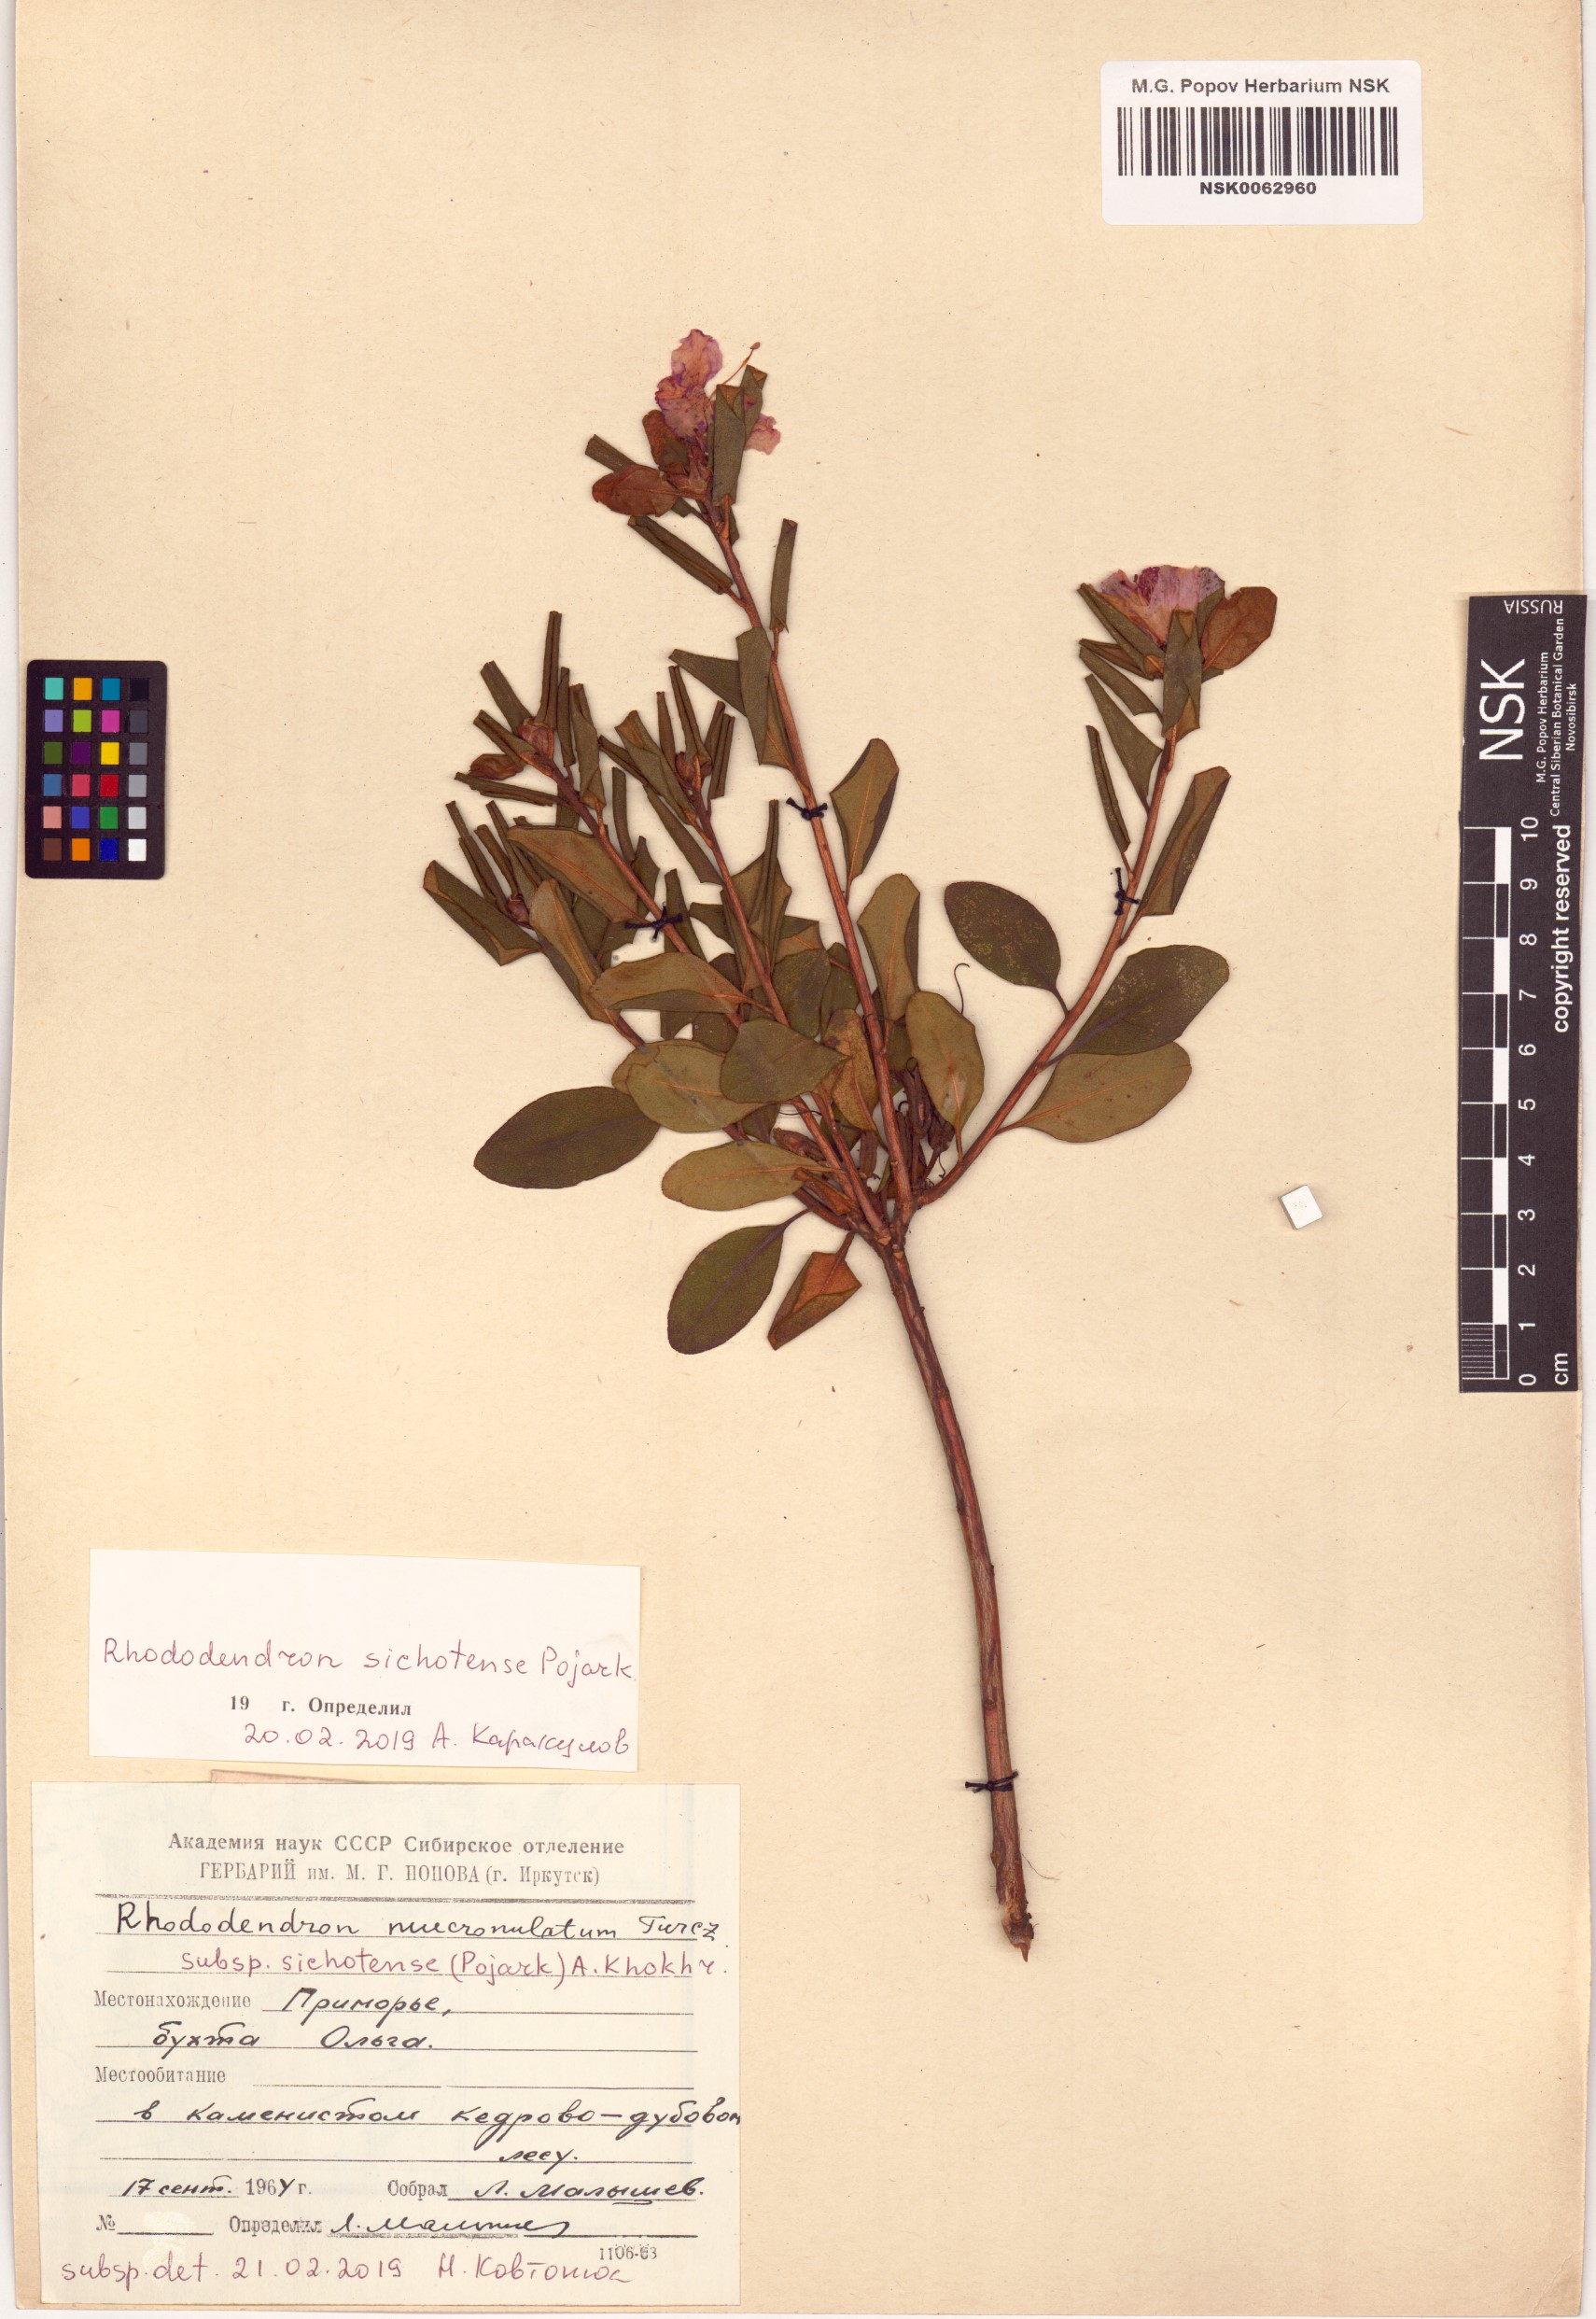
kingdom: Plantae
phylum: Tracheophyta
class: Magnoliopsida
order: Ericales
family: Ericaceae
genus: Rhododendron
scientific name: Rhododendron sichotense
